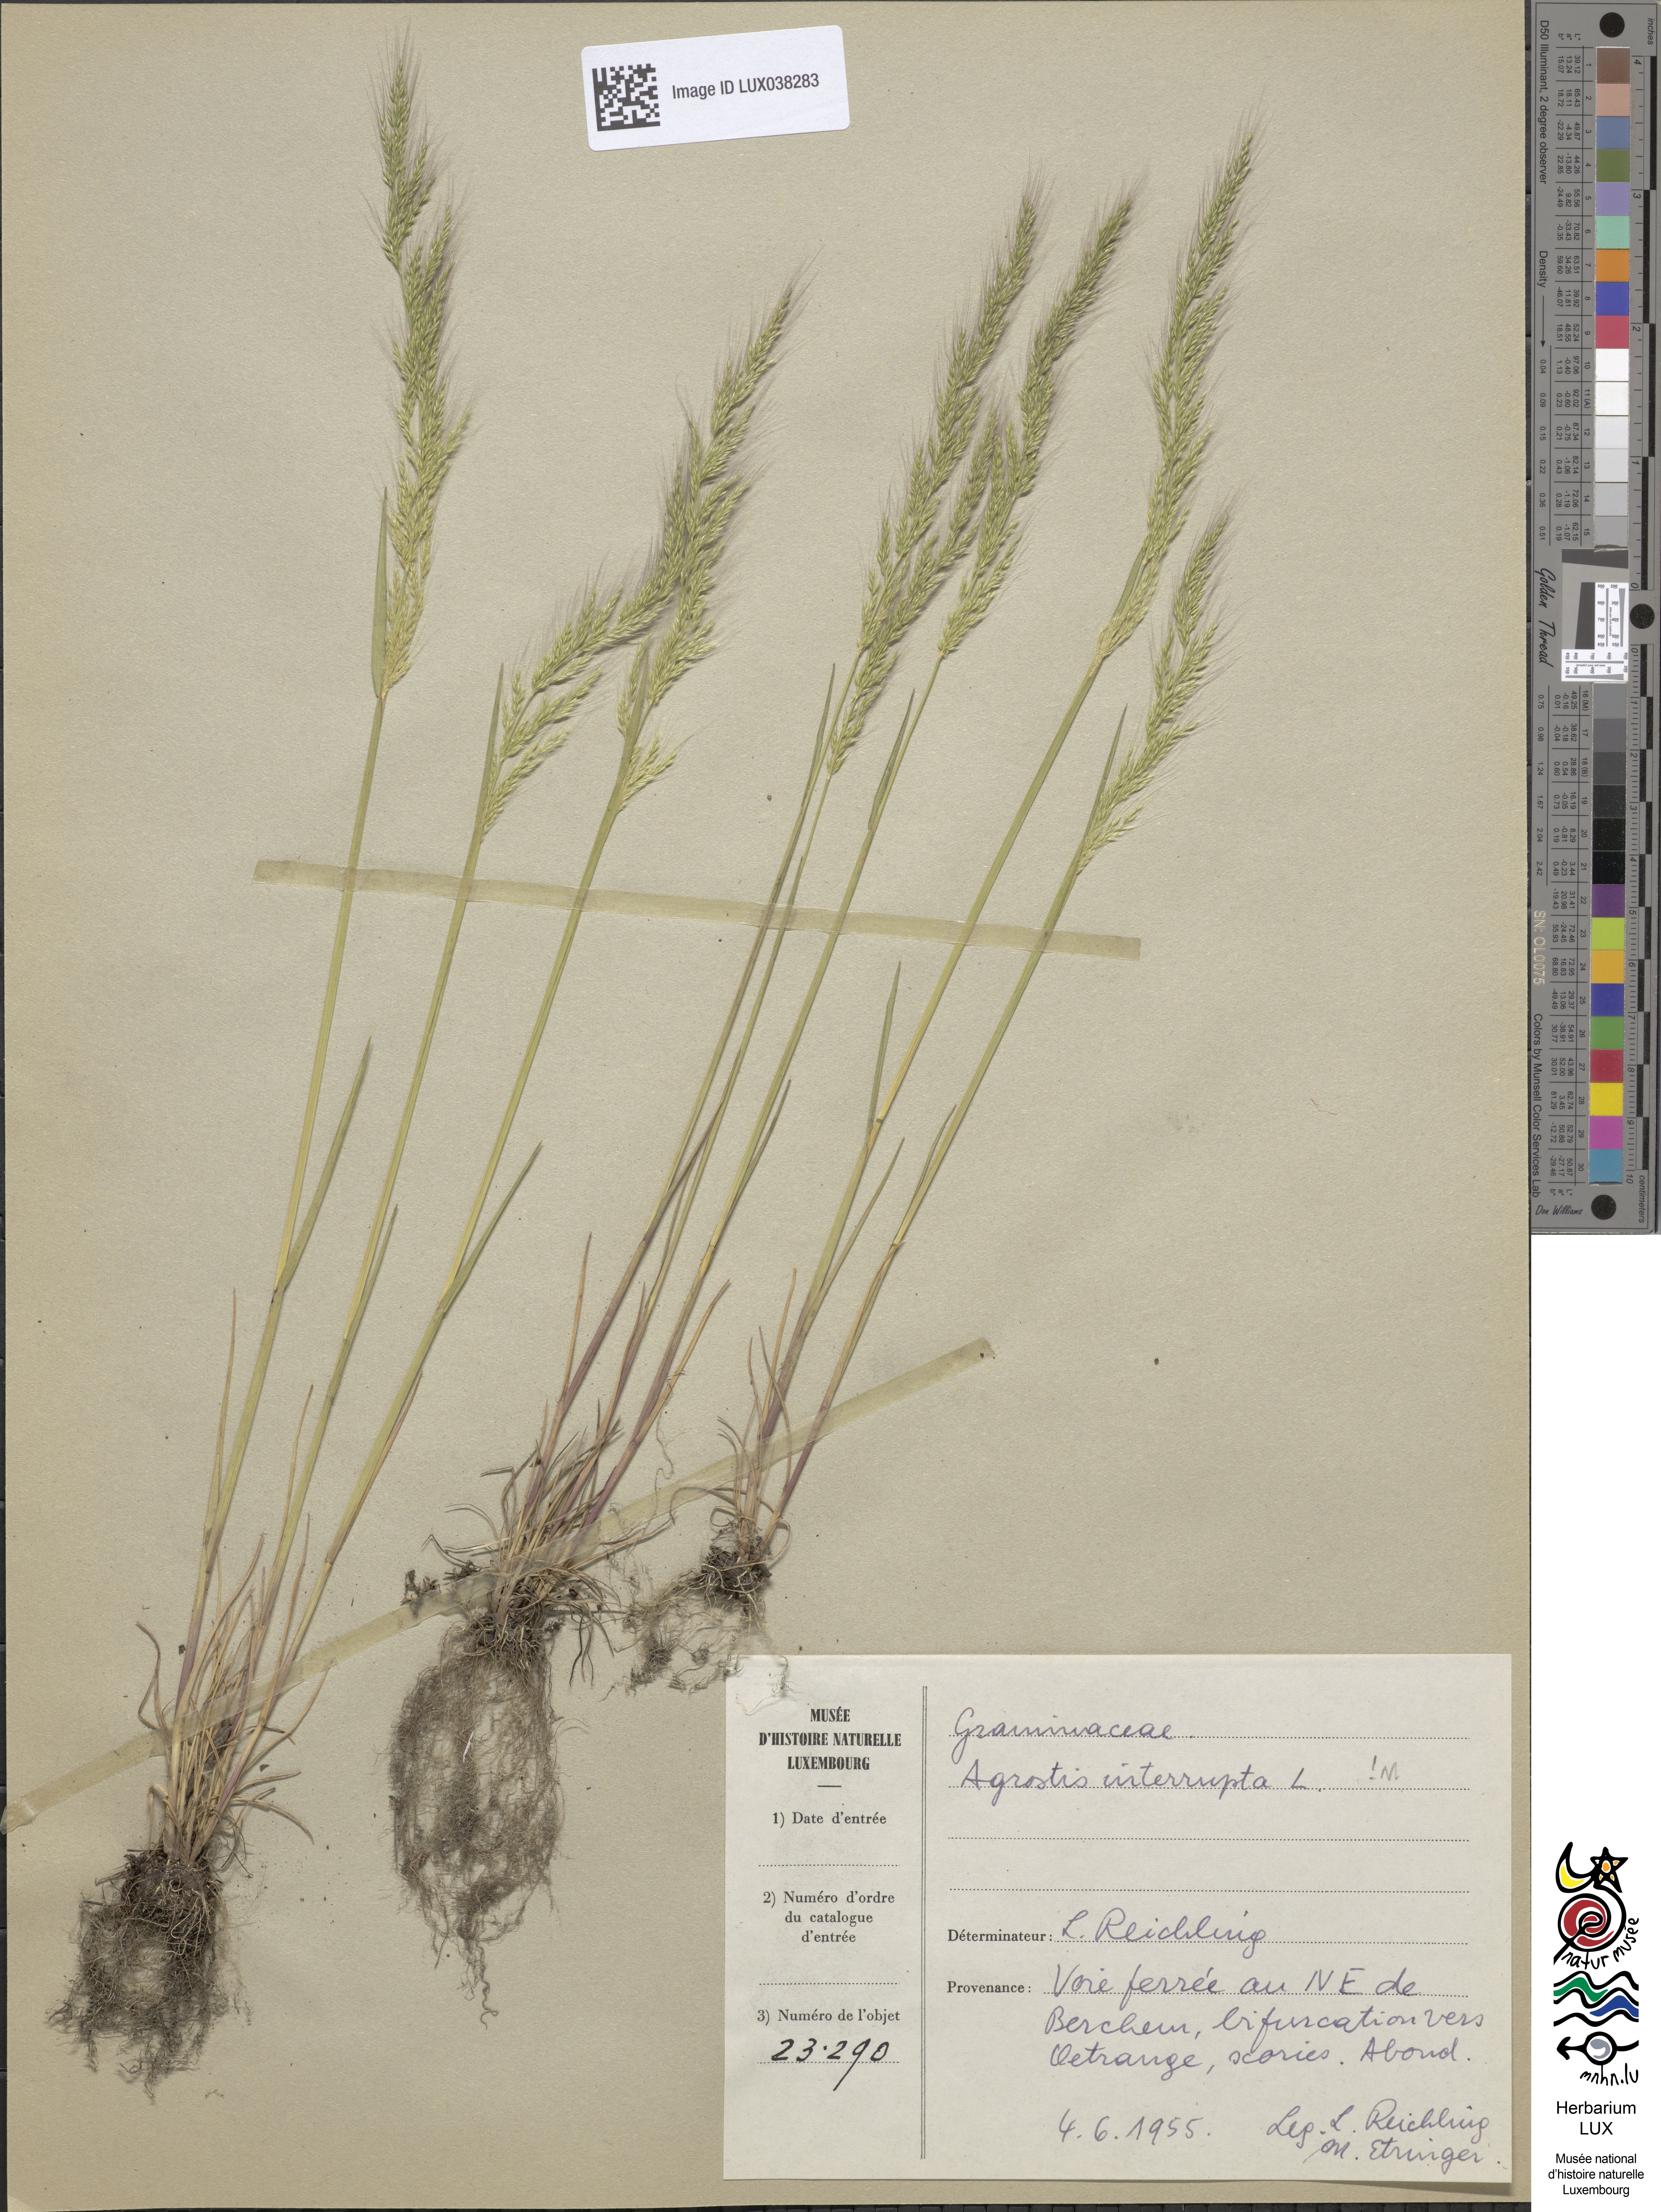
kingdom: Plantae
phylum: Tracheophyta
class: Liliopsida
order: Poales
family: Poaceae
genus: Agrostis
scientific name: Agrostis vinealis
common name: Brown bent
